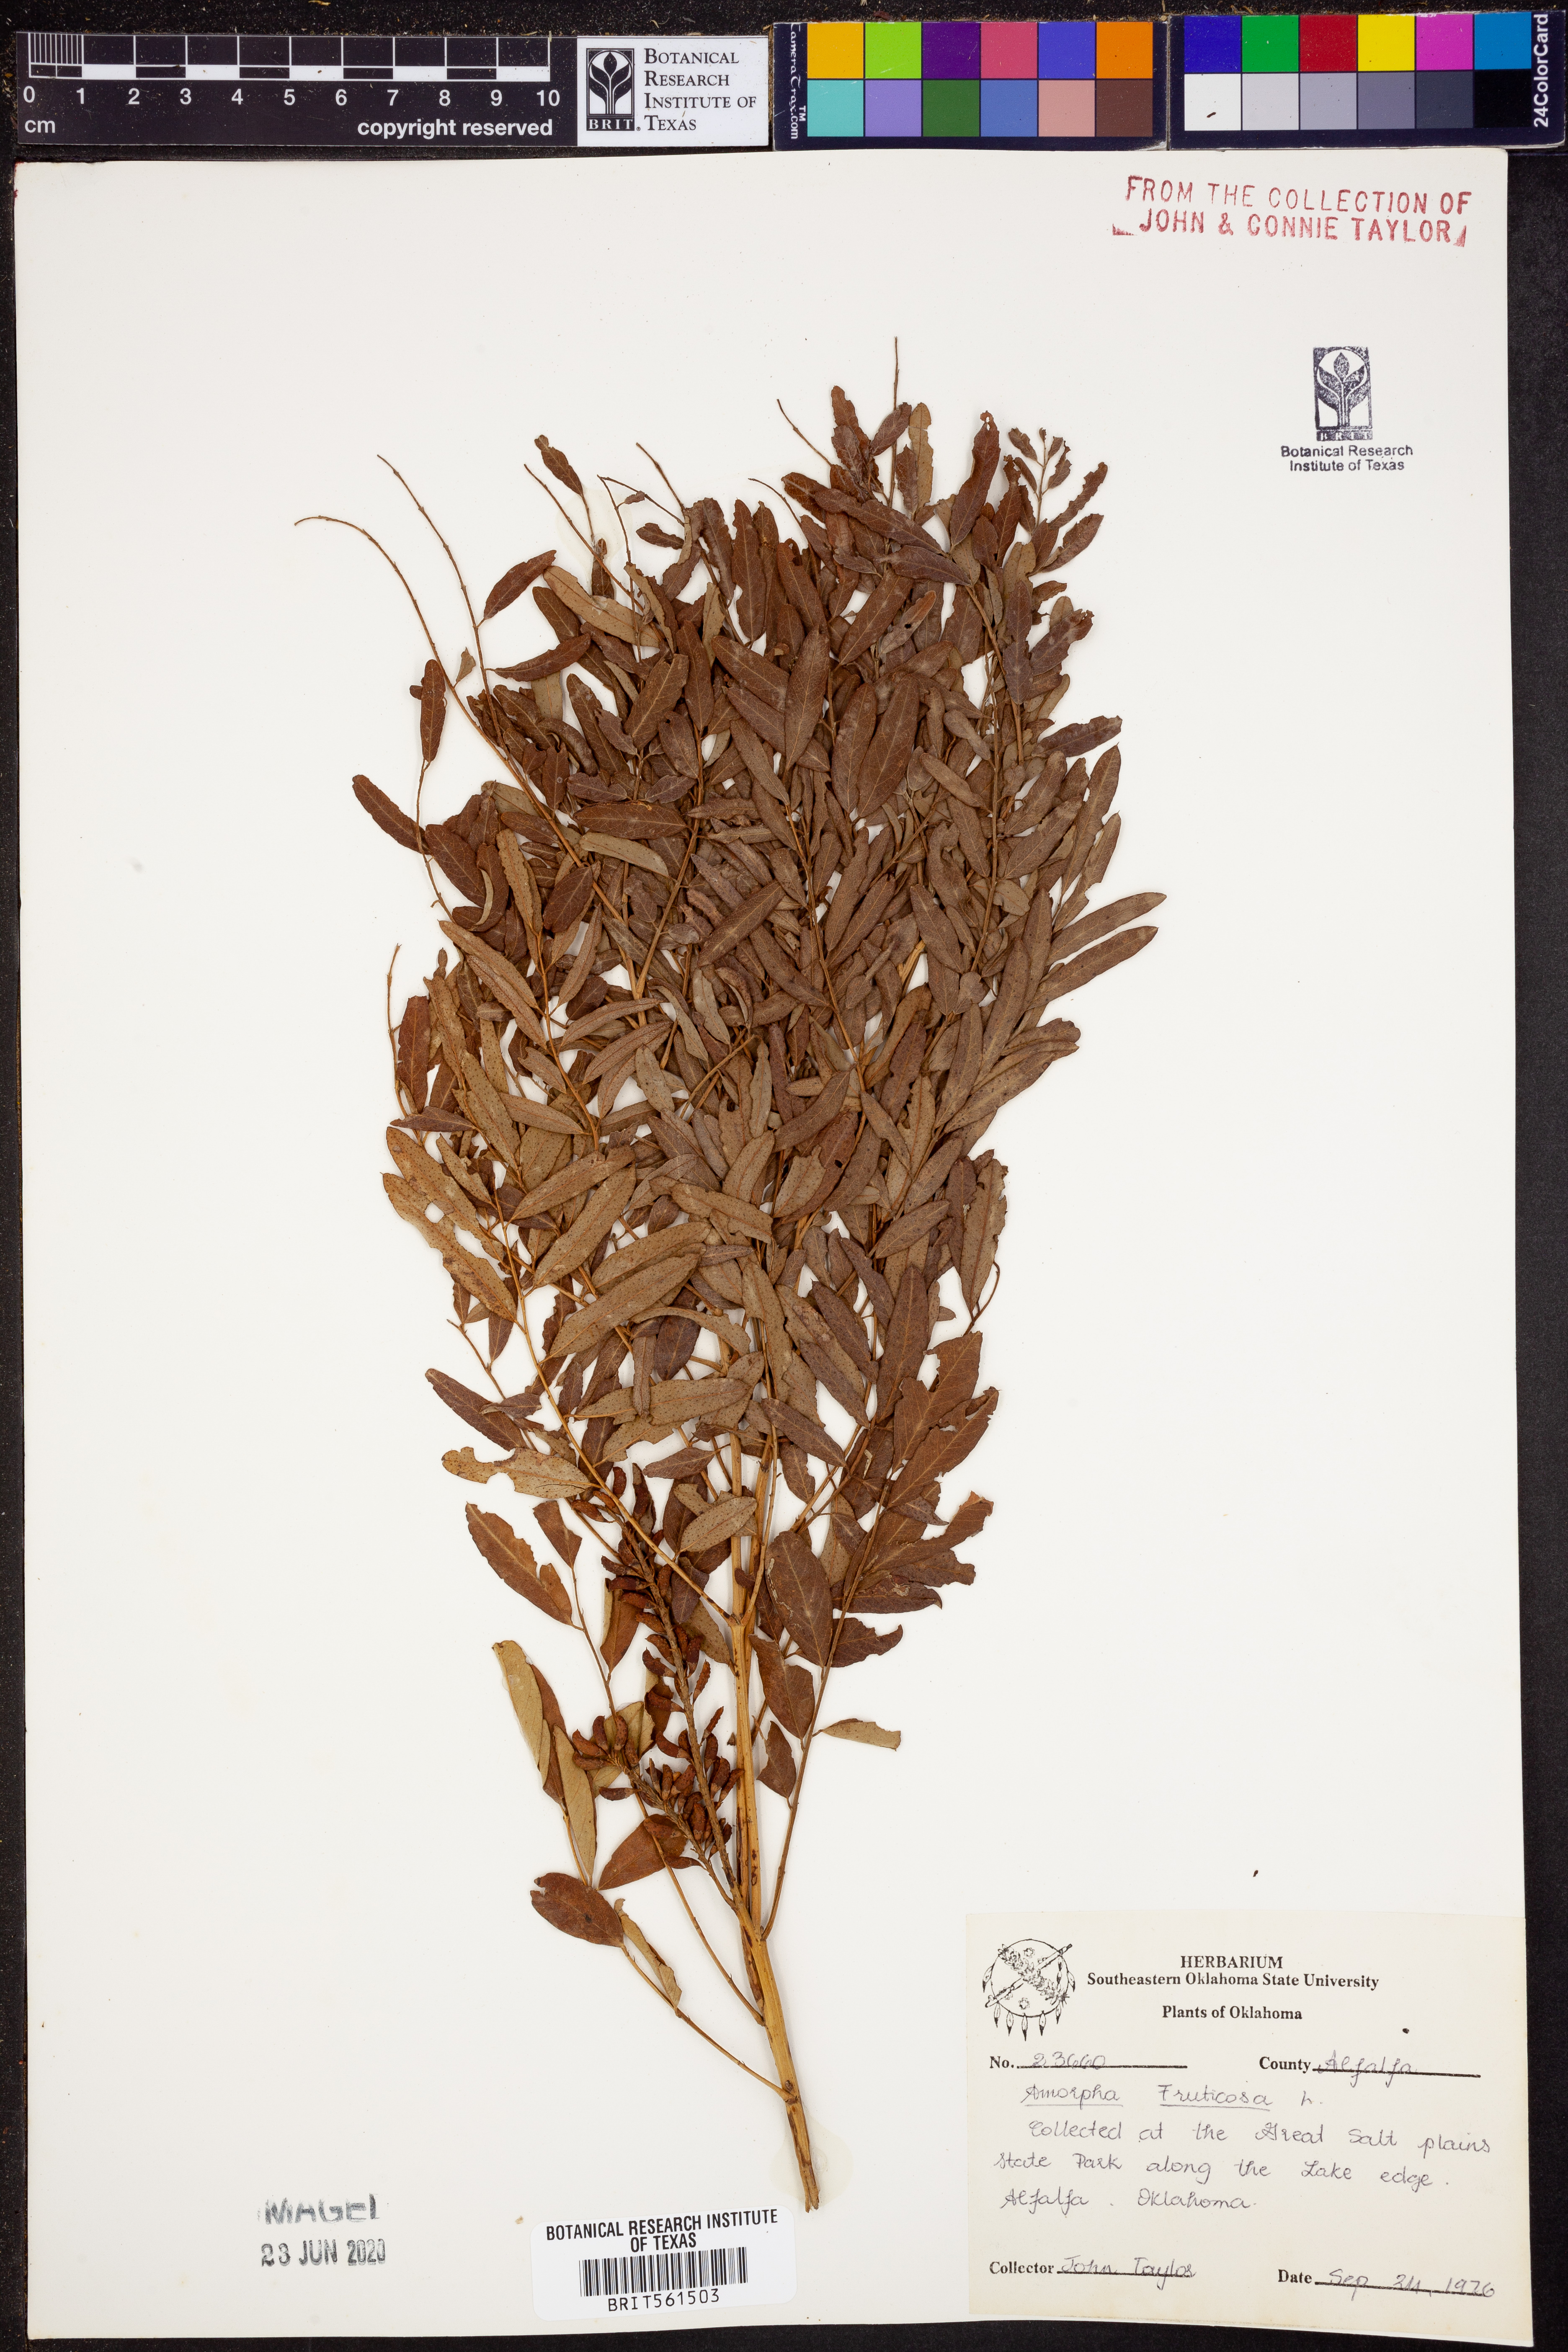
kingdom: Plantae
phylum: Tracheophyta
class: Magnoliopsida
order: Fabales
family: Fabaceae
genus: Amorpha
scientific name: Amorpha fruticosa
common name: False indigo
